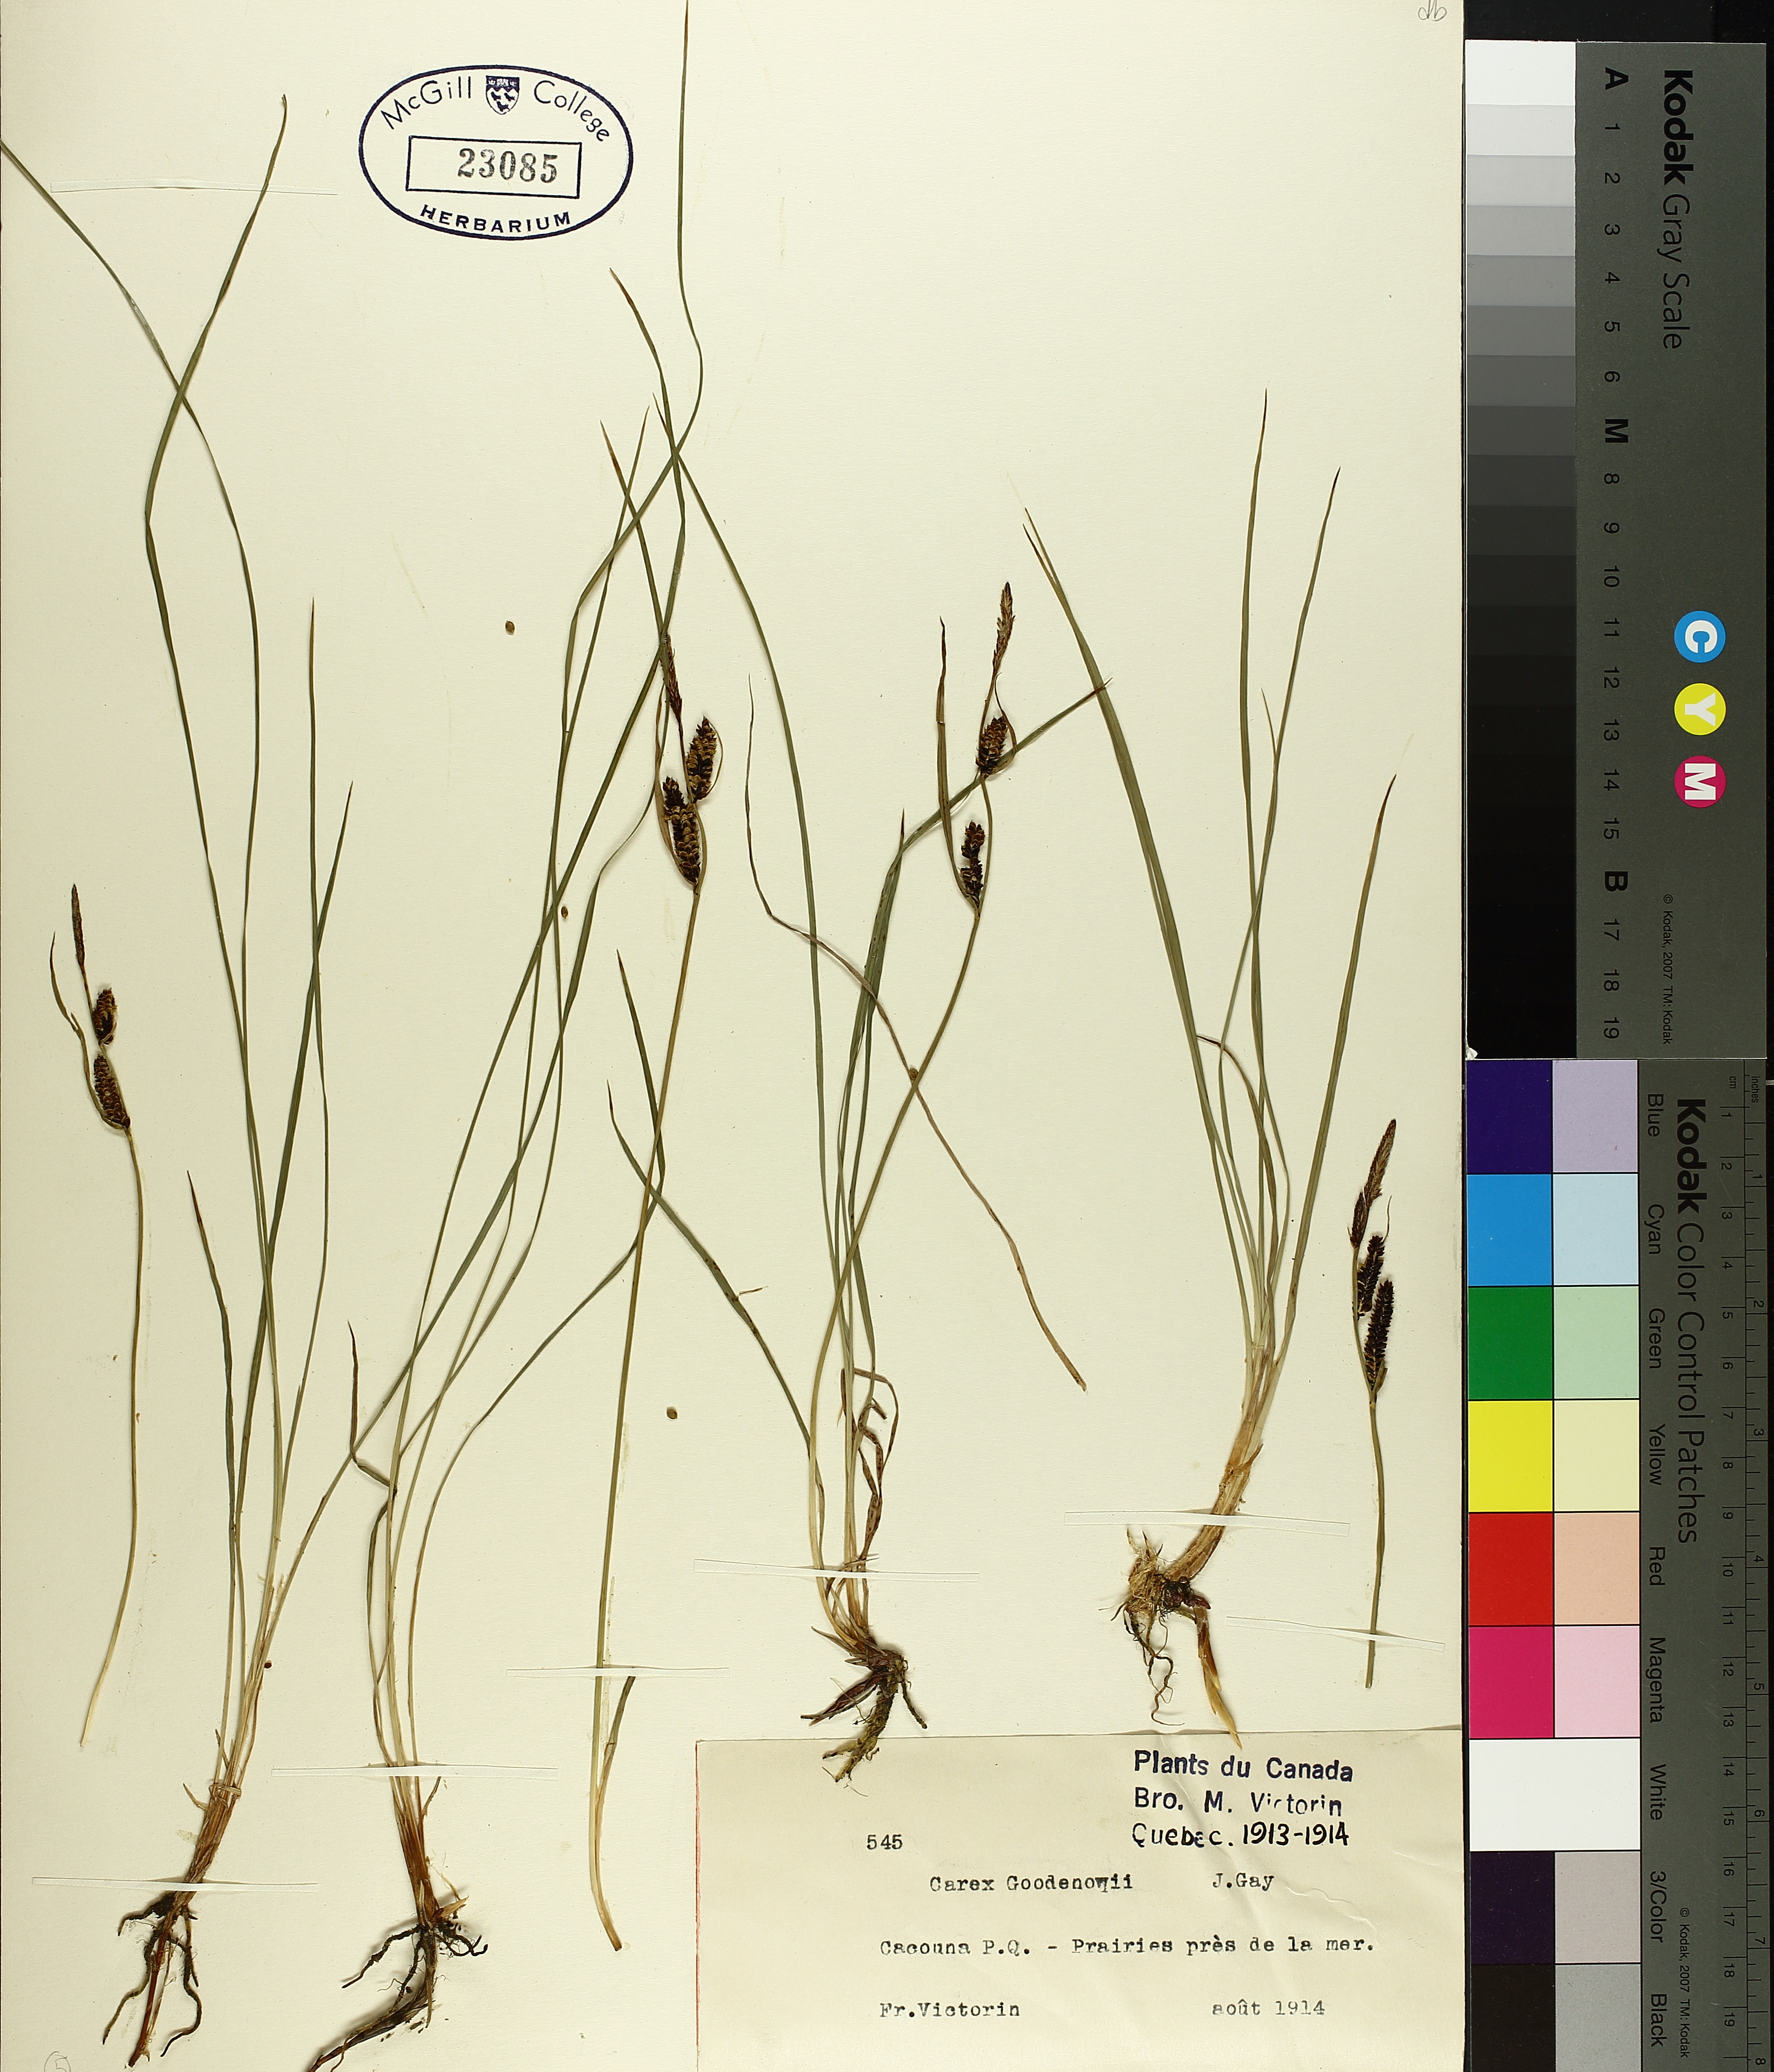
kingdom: Plantae
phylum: Tracheophyta
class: Liliopsida
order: Poales
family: Cyperaceae
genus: Carex
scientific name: Carex nigra
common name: Common sedge
